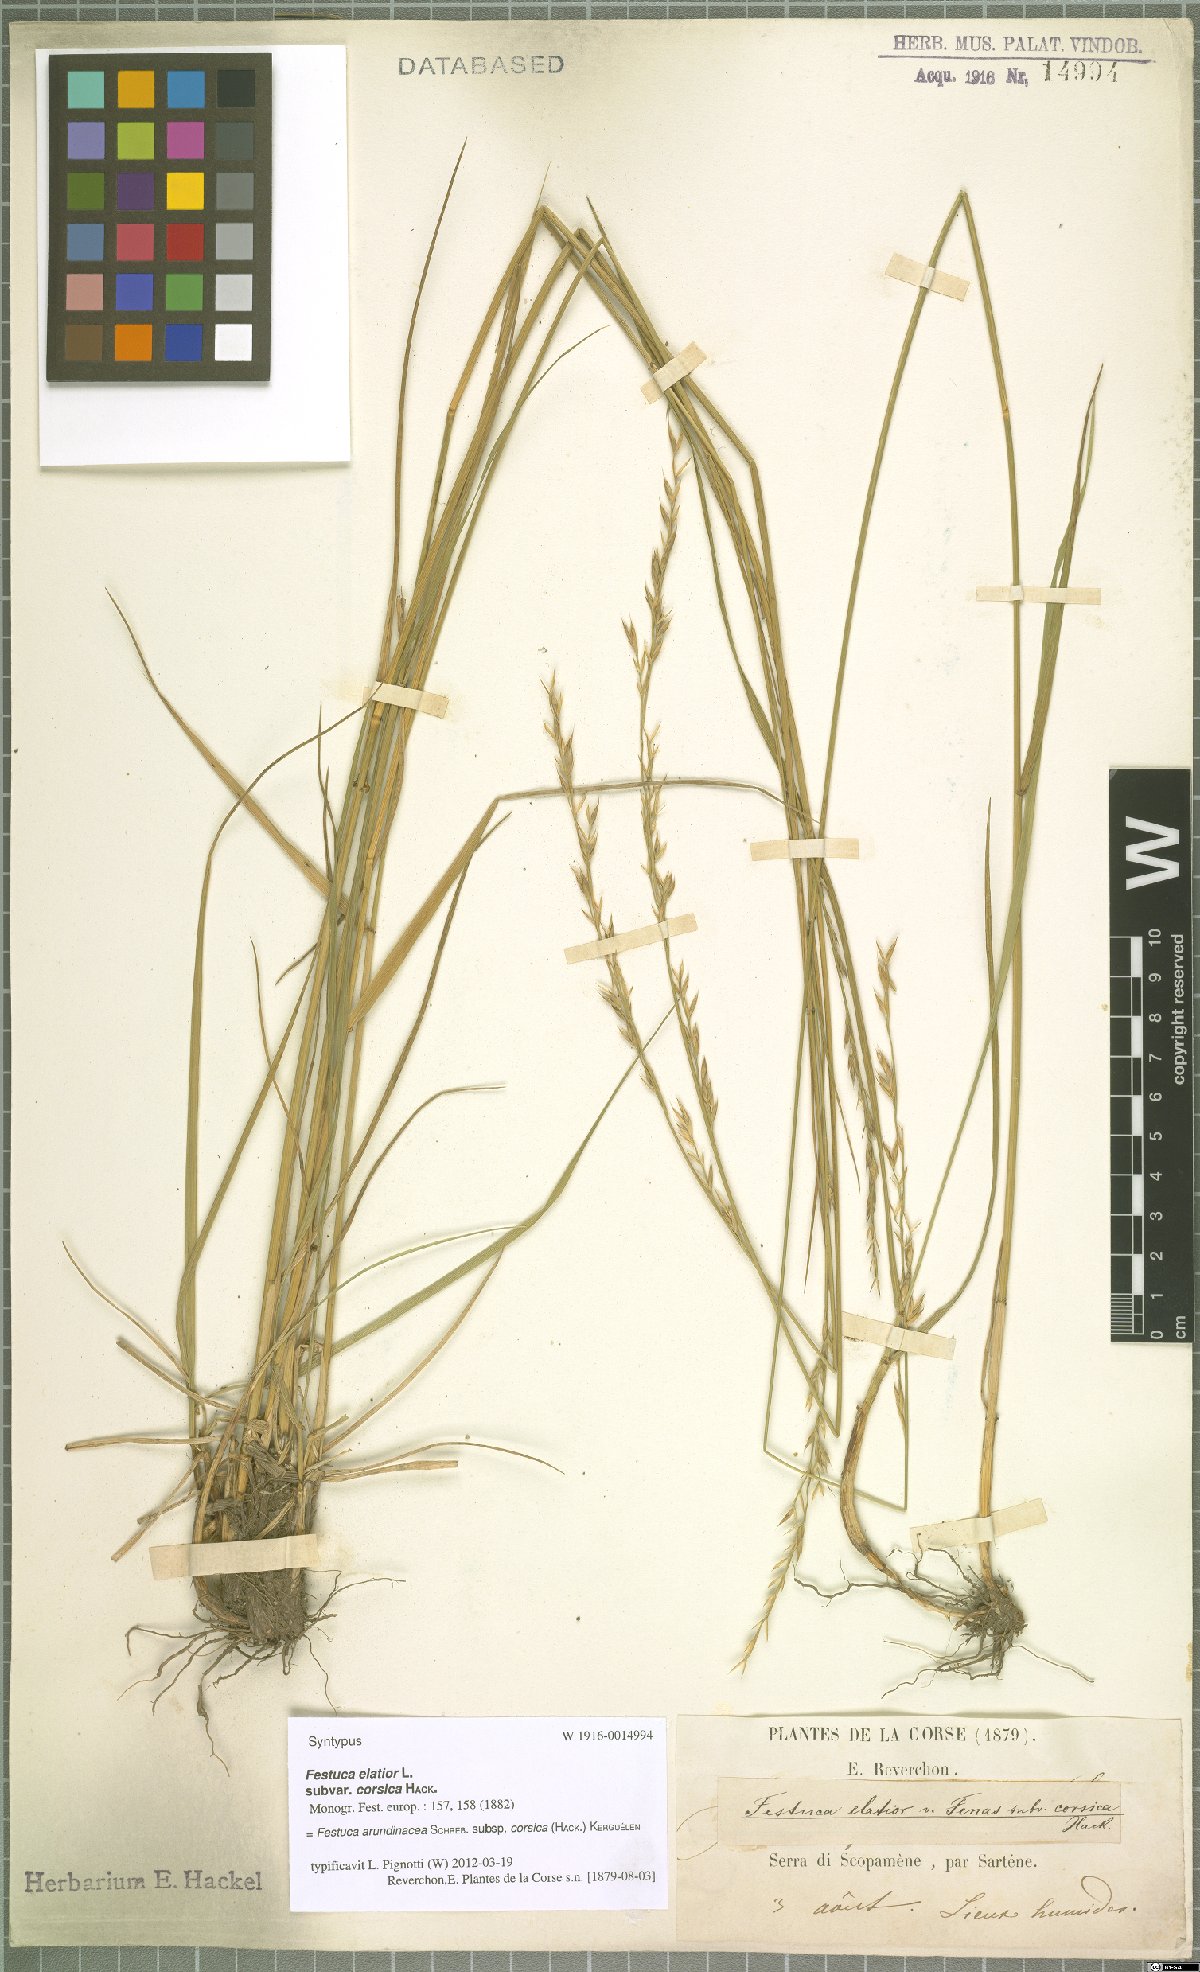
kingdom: Plantae
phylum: Tracheophyta
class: Liliopsida
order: Poales
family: Poaceae
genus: Lolium
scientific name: Lolium interruptum
